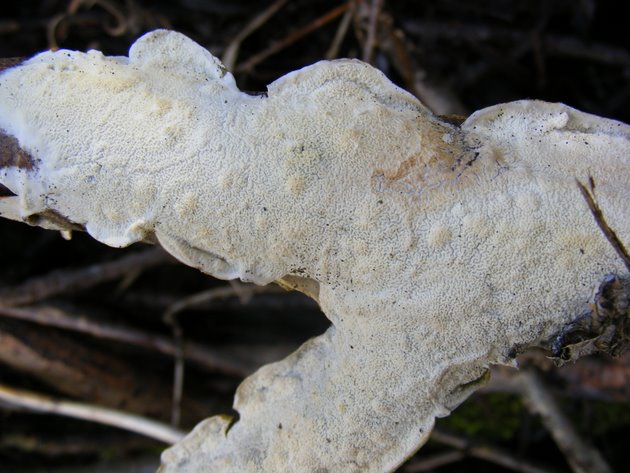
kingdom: Fungi
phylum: Basidiomycota
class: Agaricomycetes
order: Polyporales
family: Irpicaceae
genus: Byssomerulius
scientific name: Byssomerulius corium
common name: læder-åresvamp
